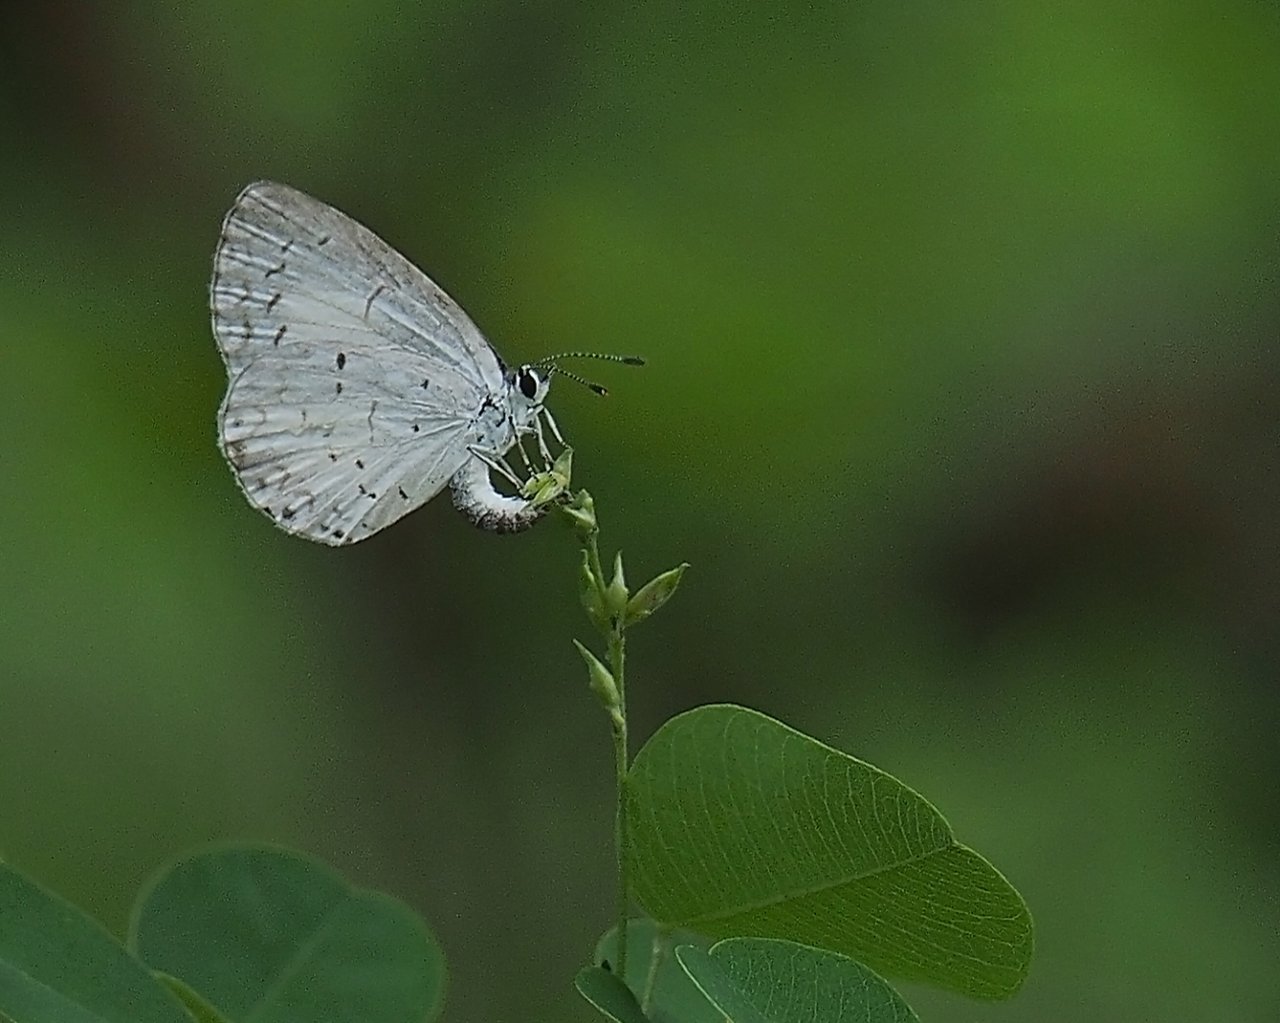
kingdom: Animalia
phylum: Arthropoda
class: Insecta
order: Lepidoptera
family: Lycaenidae
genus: Cyaniris
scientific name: Cyaniris neglecta
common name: Summer Azure
